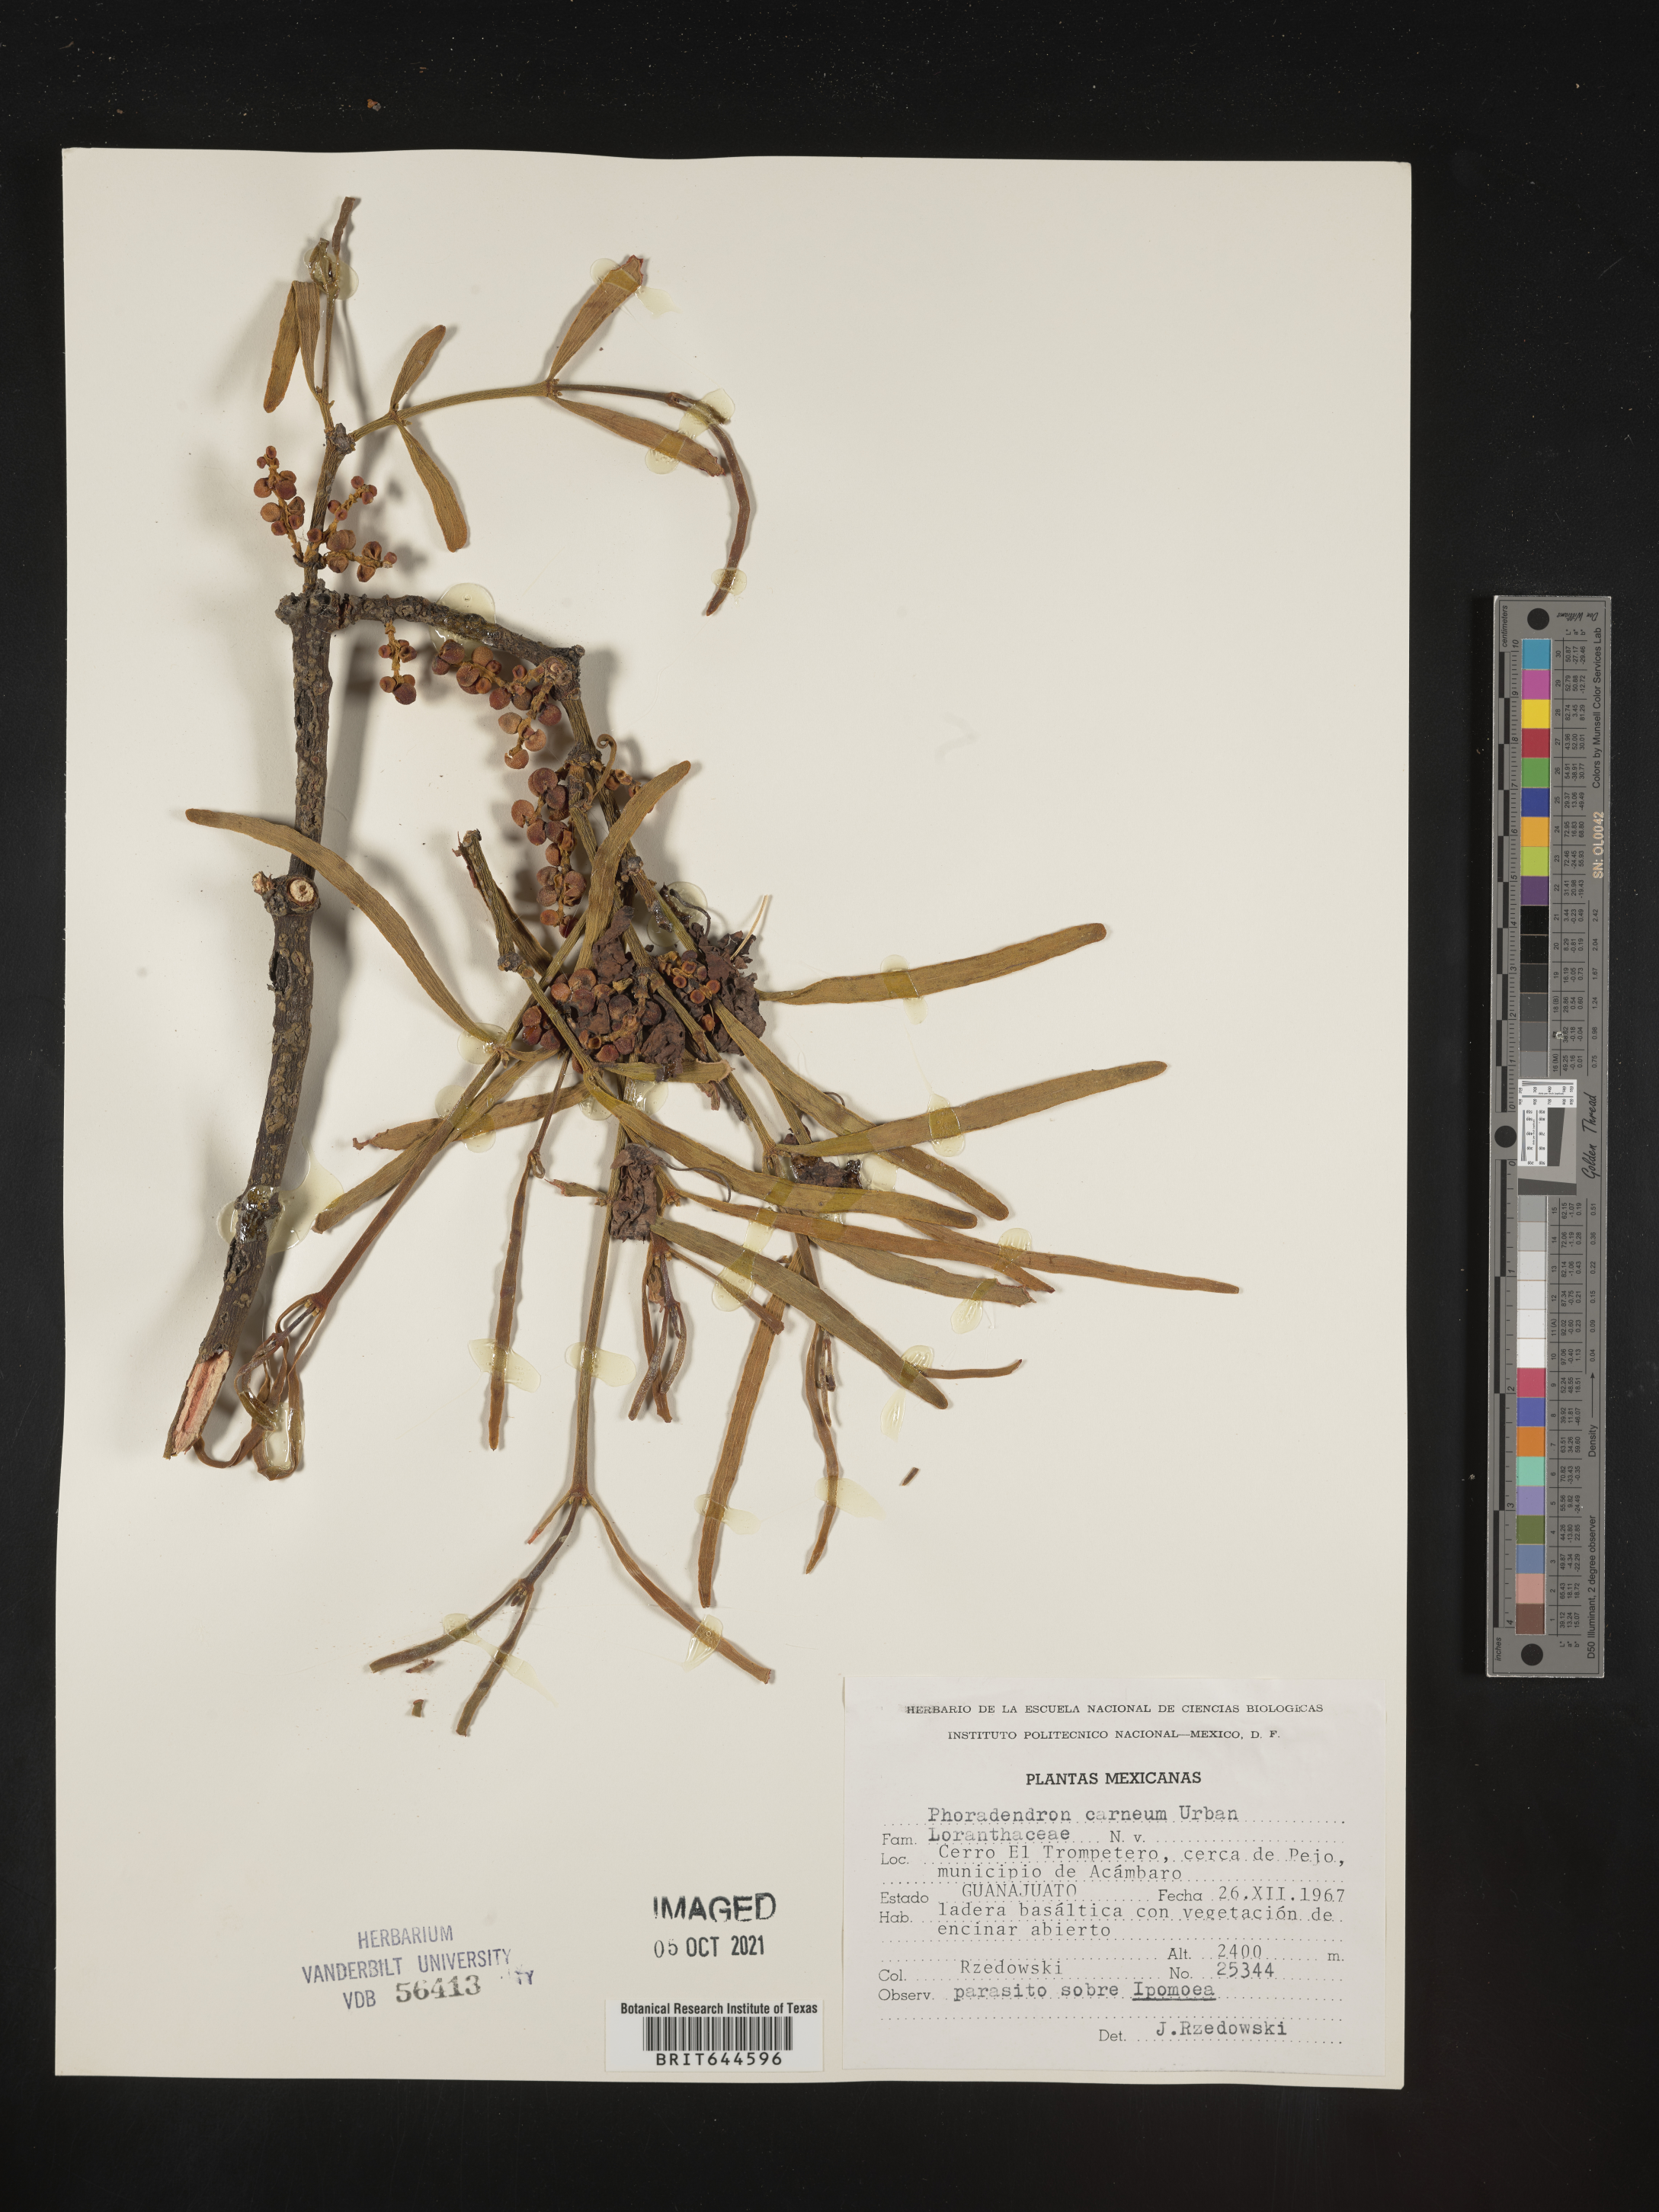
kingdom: Plantae
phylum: Tracheophyta
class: Magnoliopsida
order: Santalales
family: Viscaceae
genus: Phoradendron
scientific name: Phoradendron
